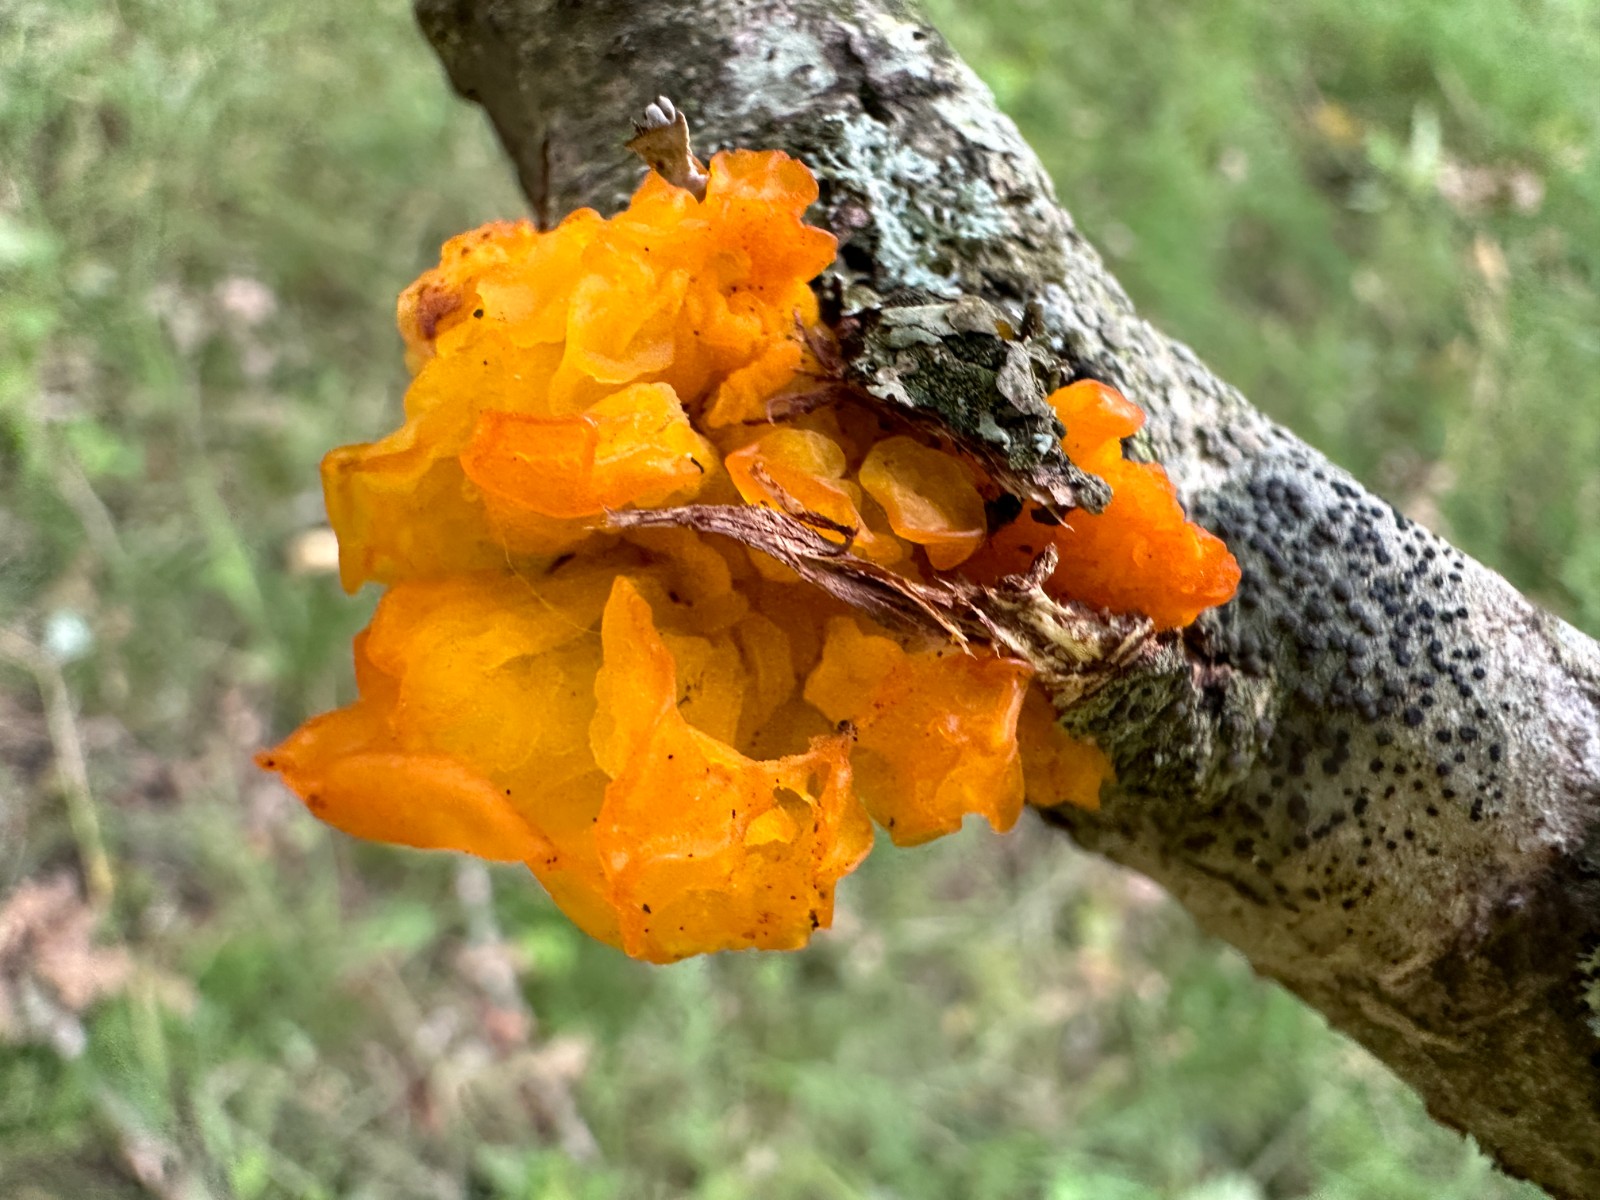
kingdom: Fungi
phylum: Basidiomycota
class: Tremellomycetes
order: Tremellales
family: Tremellaceae
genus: Tremella
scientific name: Tremella mesenterica
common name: gul bævresvamp
